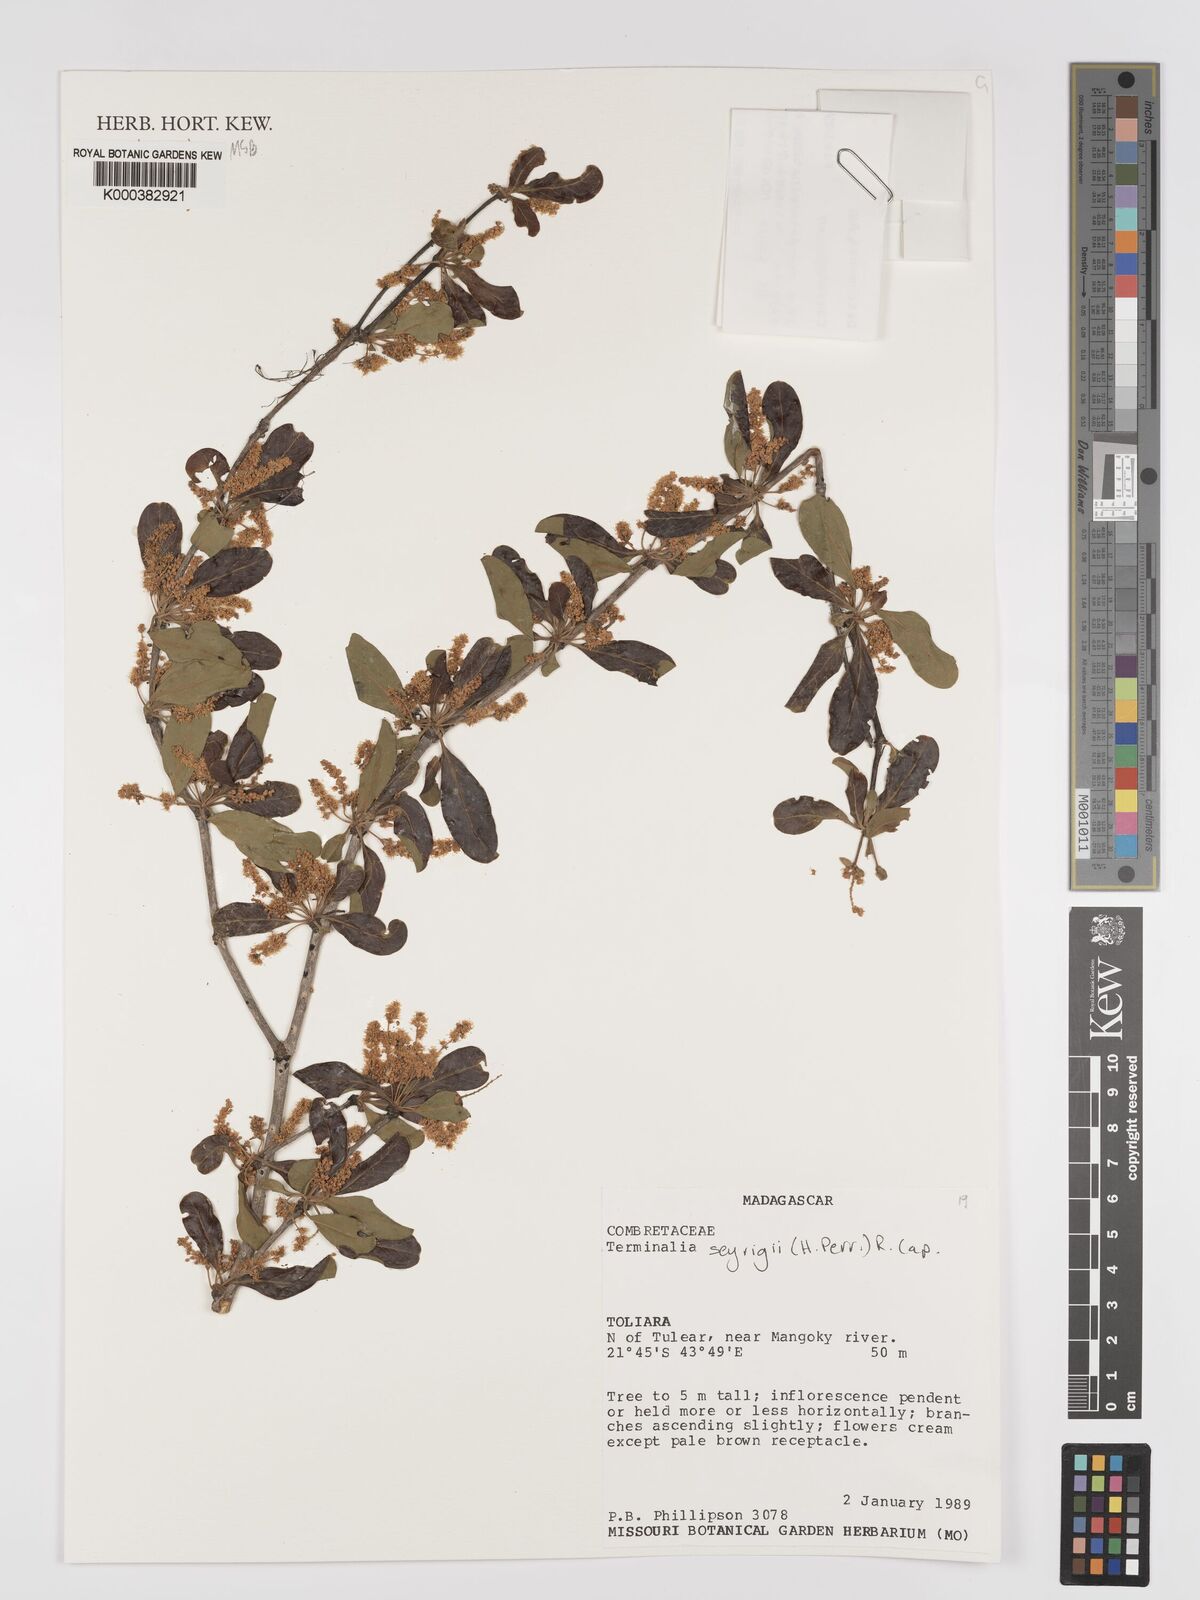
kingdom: Plantae
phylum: Tracheophyta
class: Magnoliopsida
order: Myrtales
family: Combretaceae
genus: Terminalia
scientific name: Terminalia seyrigii
